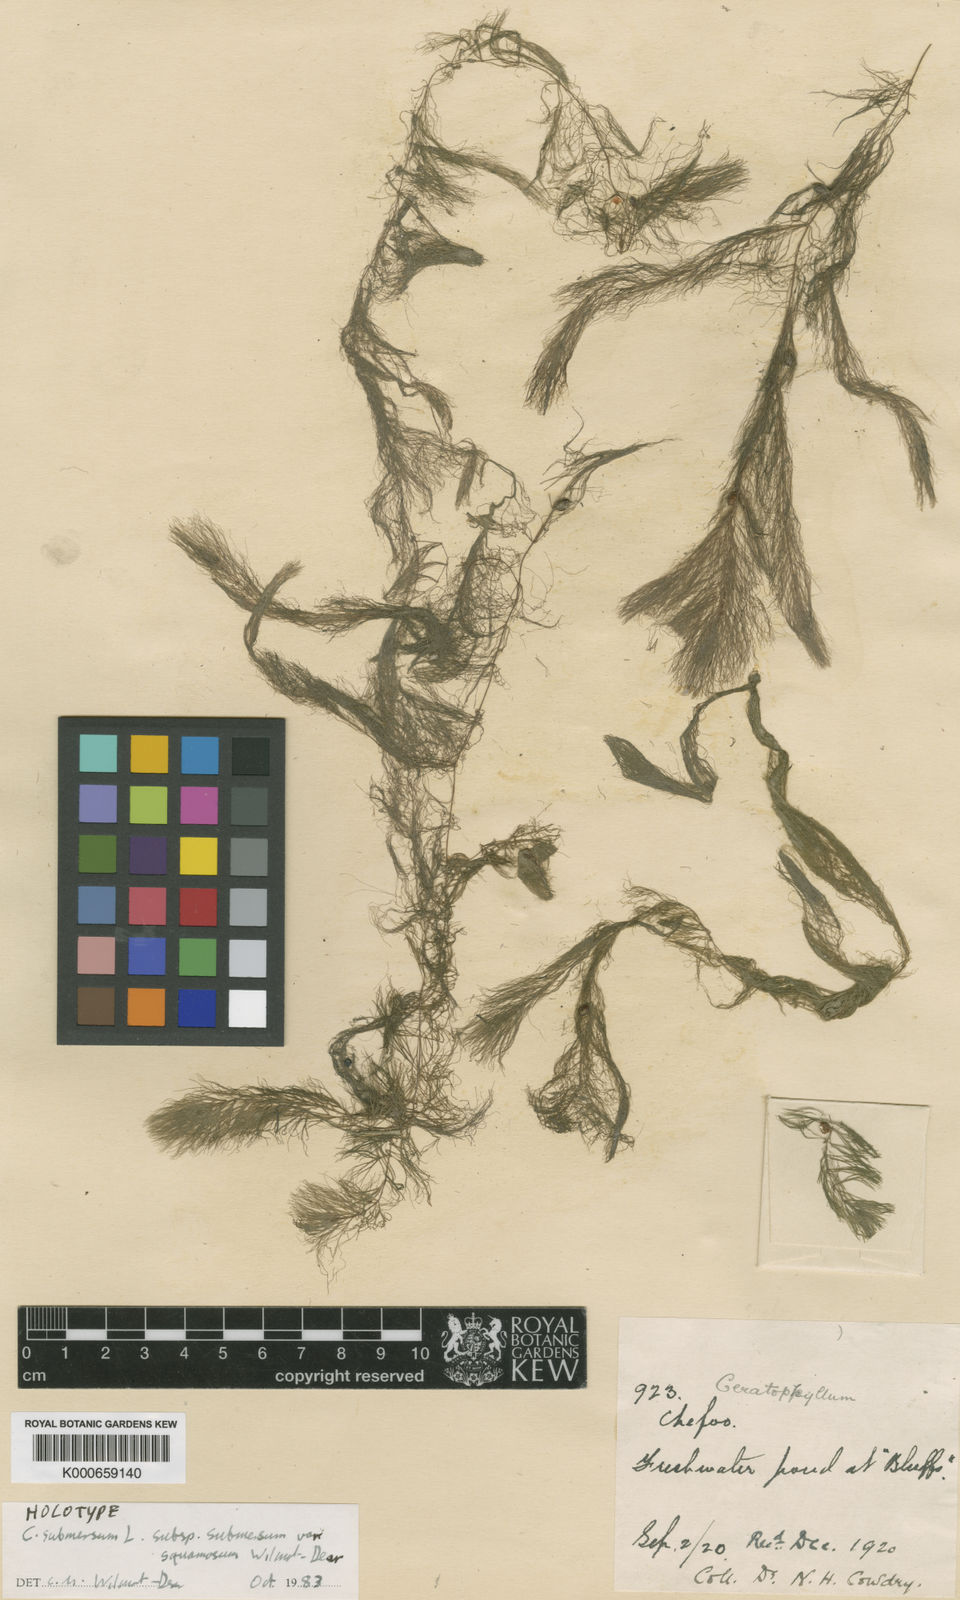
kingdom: Plantae
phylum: Tracheophyta
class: Magnoliopsida
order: Ceratophyllales
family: Ceratophyllaceae
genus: Ceratophyllum
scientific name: Ceratophyllum submersum
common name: Soft hornwort
